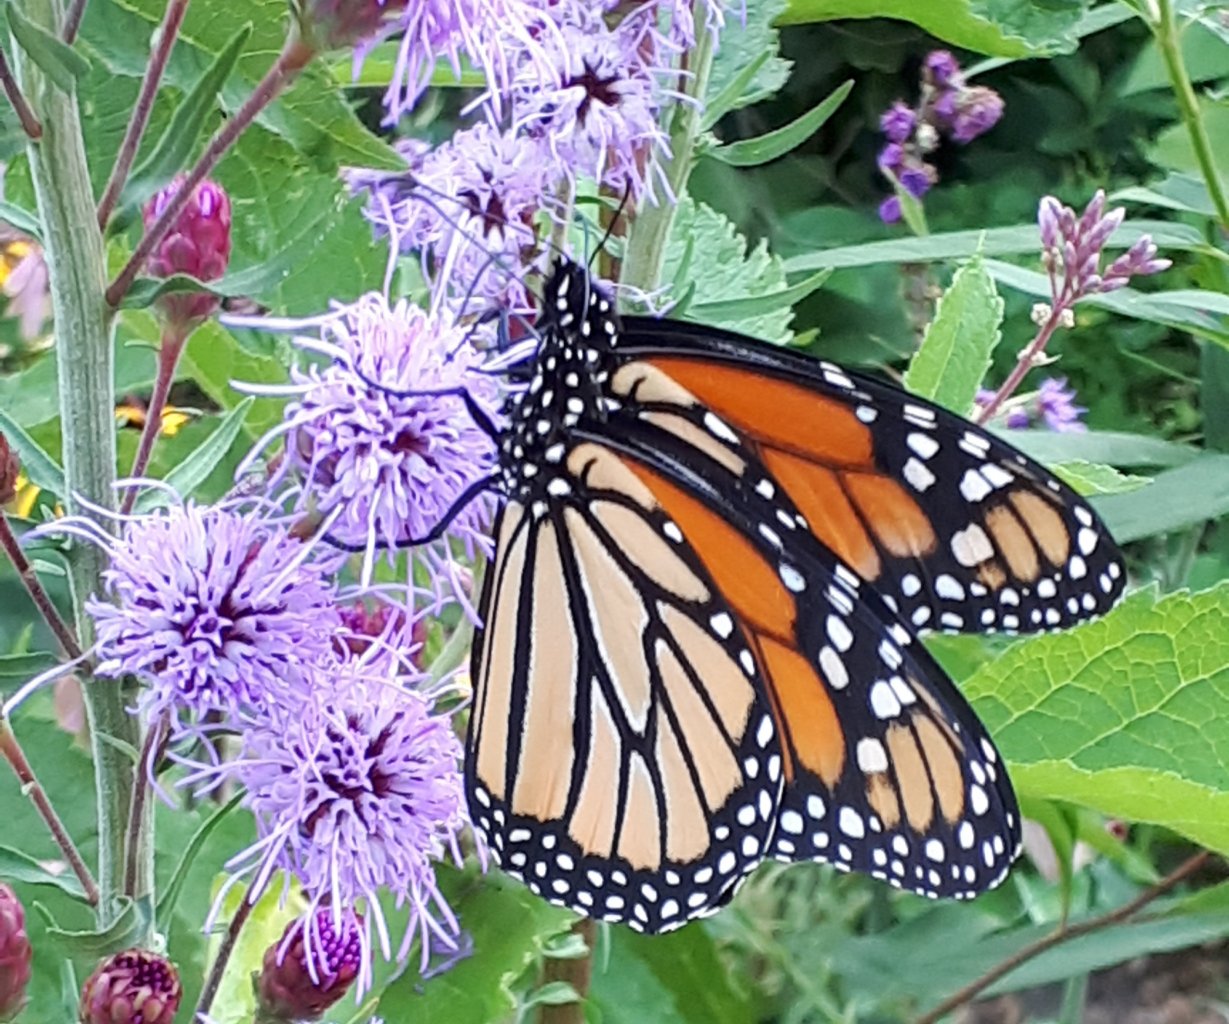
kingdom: Animalia
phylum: Arthropoda
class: Insecta
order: Lepidoptera
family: Nymphalidae
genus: Danaus
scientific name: Danaus plexippus
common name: Monarch
